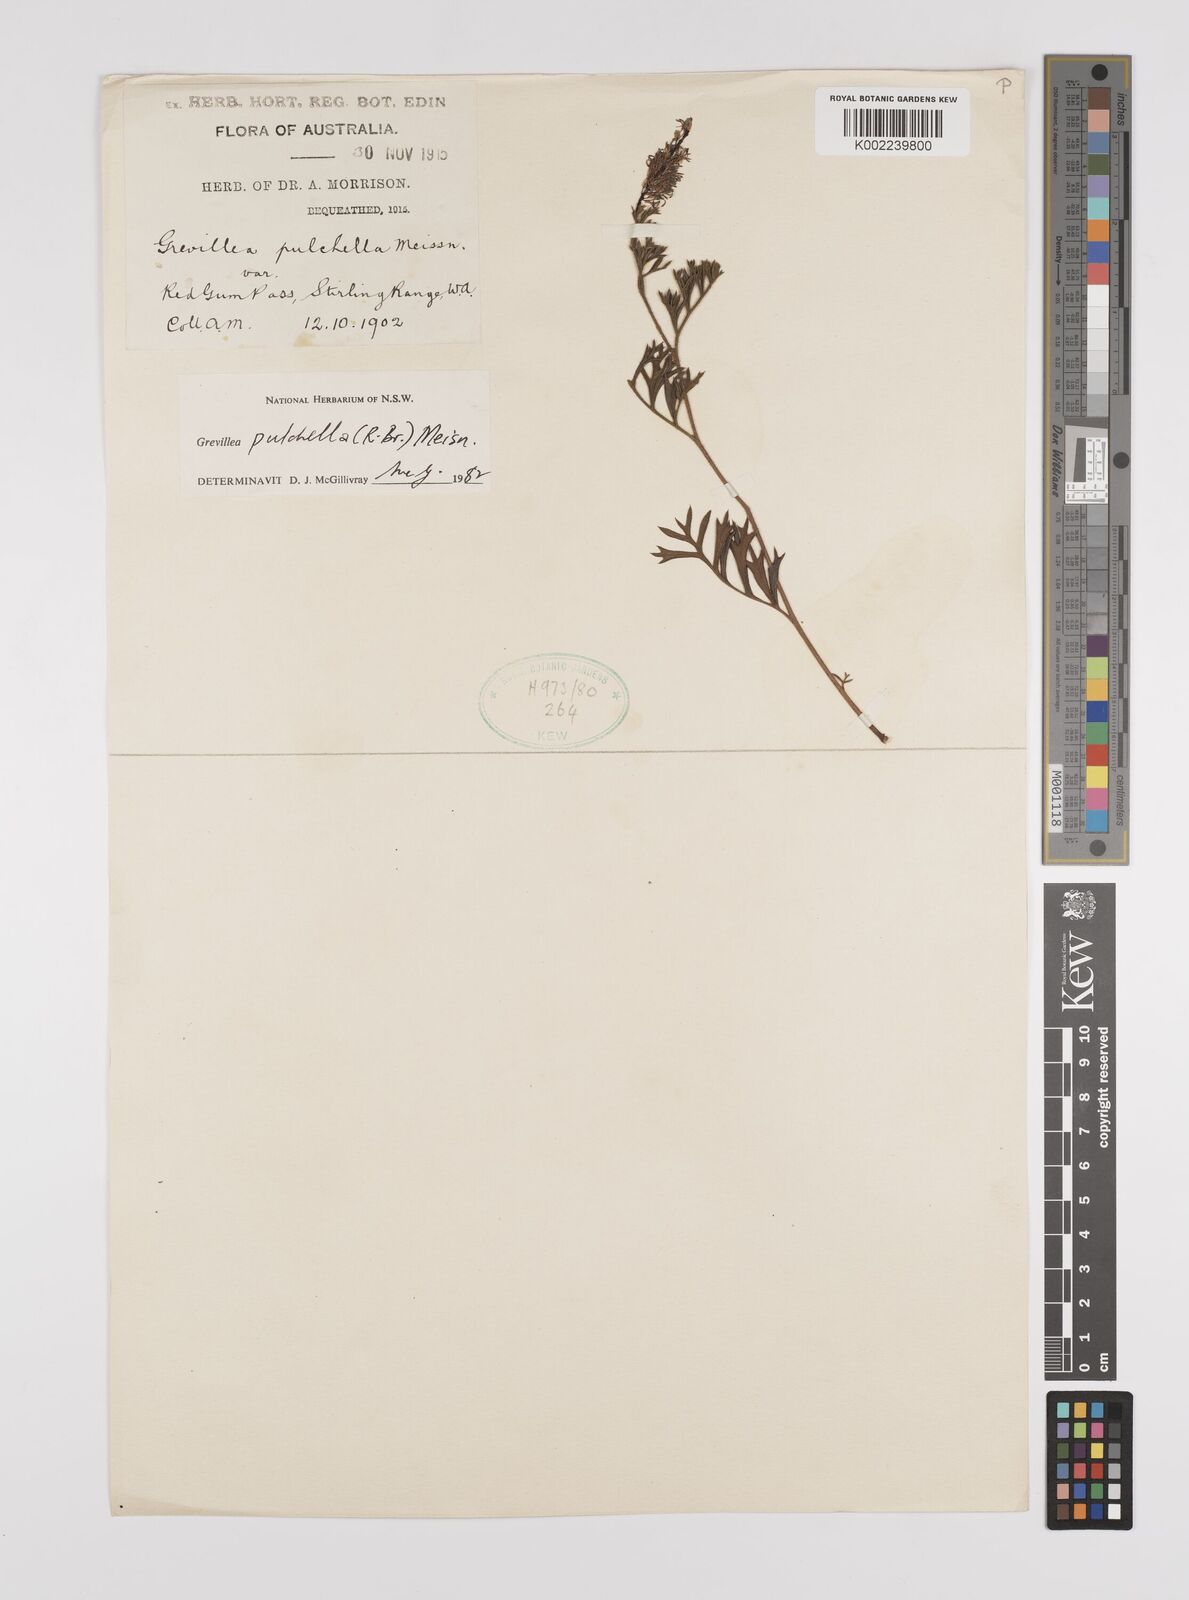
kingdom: Plantae
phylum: Tracheophyta
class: Magnoliopsida
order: Proteales
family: Proteaceae
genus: Grevillea
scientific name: Grevillea pulchella
